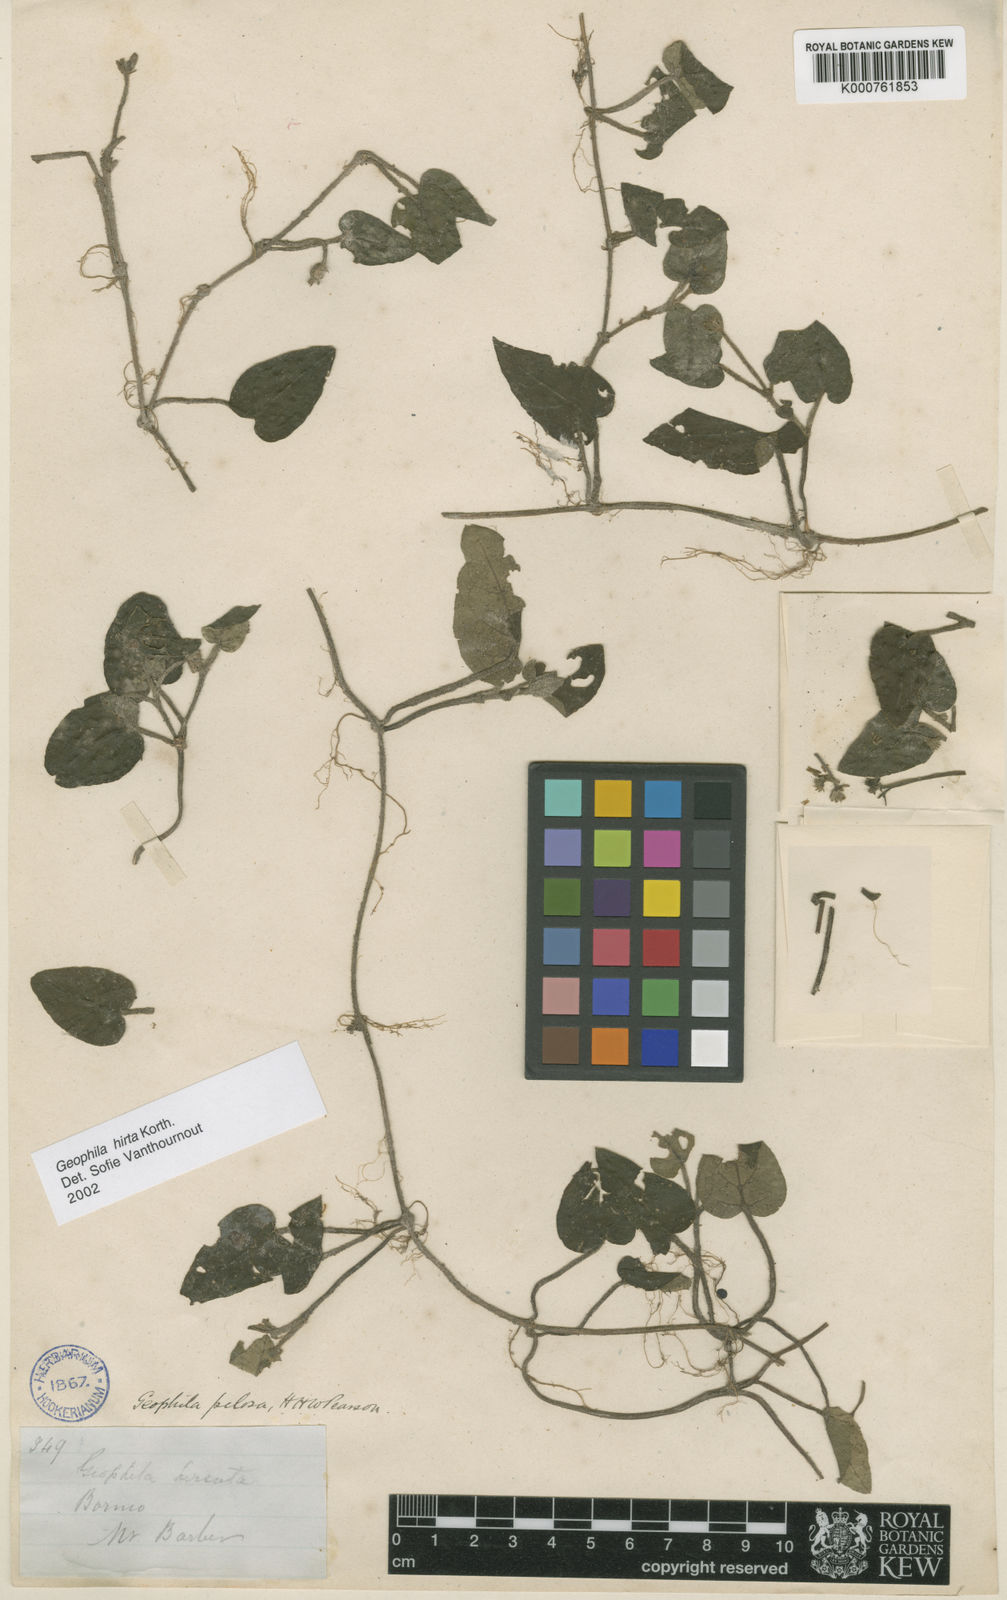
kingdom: Plantae
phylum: Tracheophyta
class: Magnoliopsida
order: Gentianales
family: Rubiaceae
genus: Geophila
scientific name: Geophila pilosa
